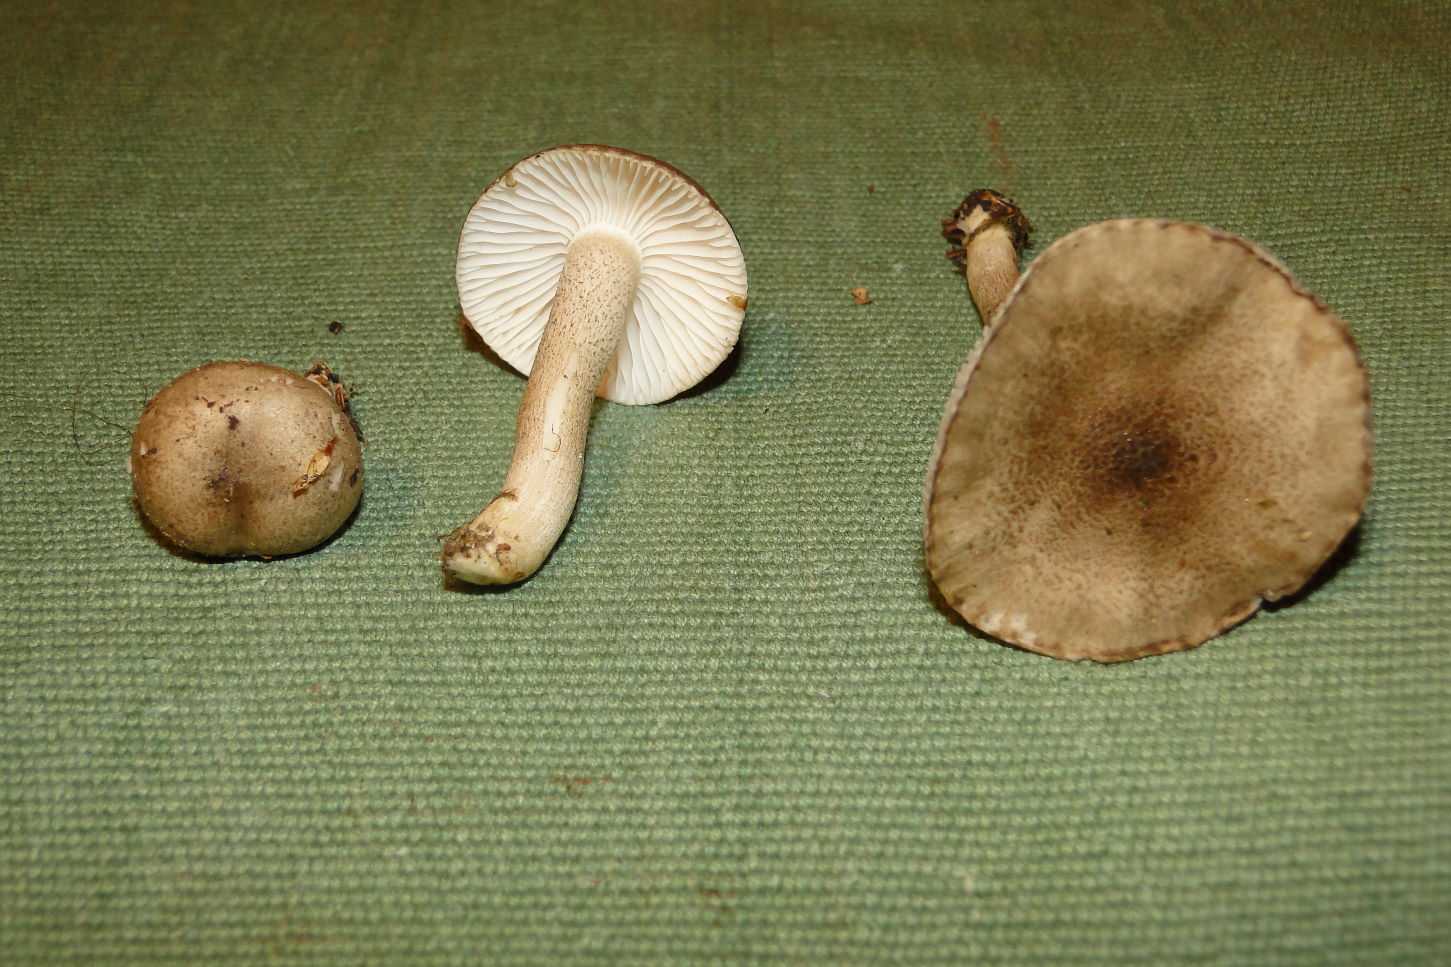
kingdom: Fungi
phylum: Basidiomycota
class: Agaricomycetes
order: Agaricales
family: Hygrophoraceae
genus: Hygrophorus
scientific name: Hygrophorus pustulatus
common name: mørkprikket sneglehat
